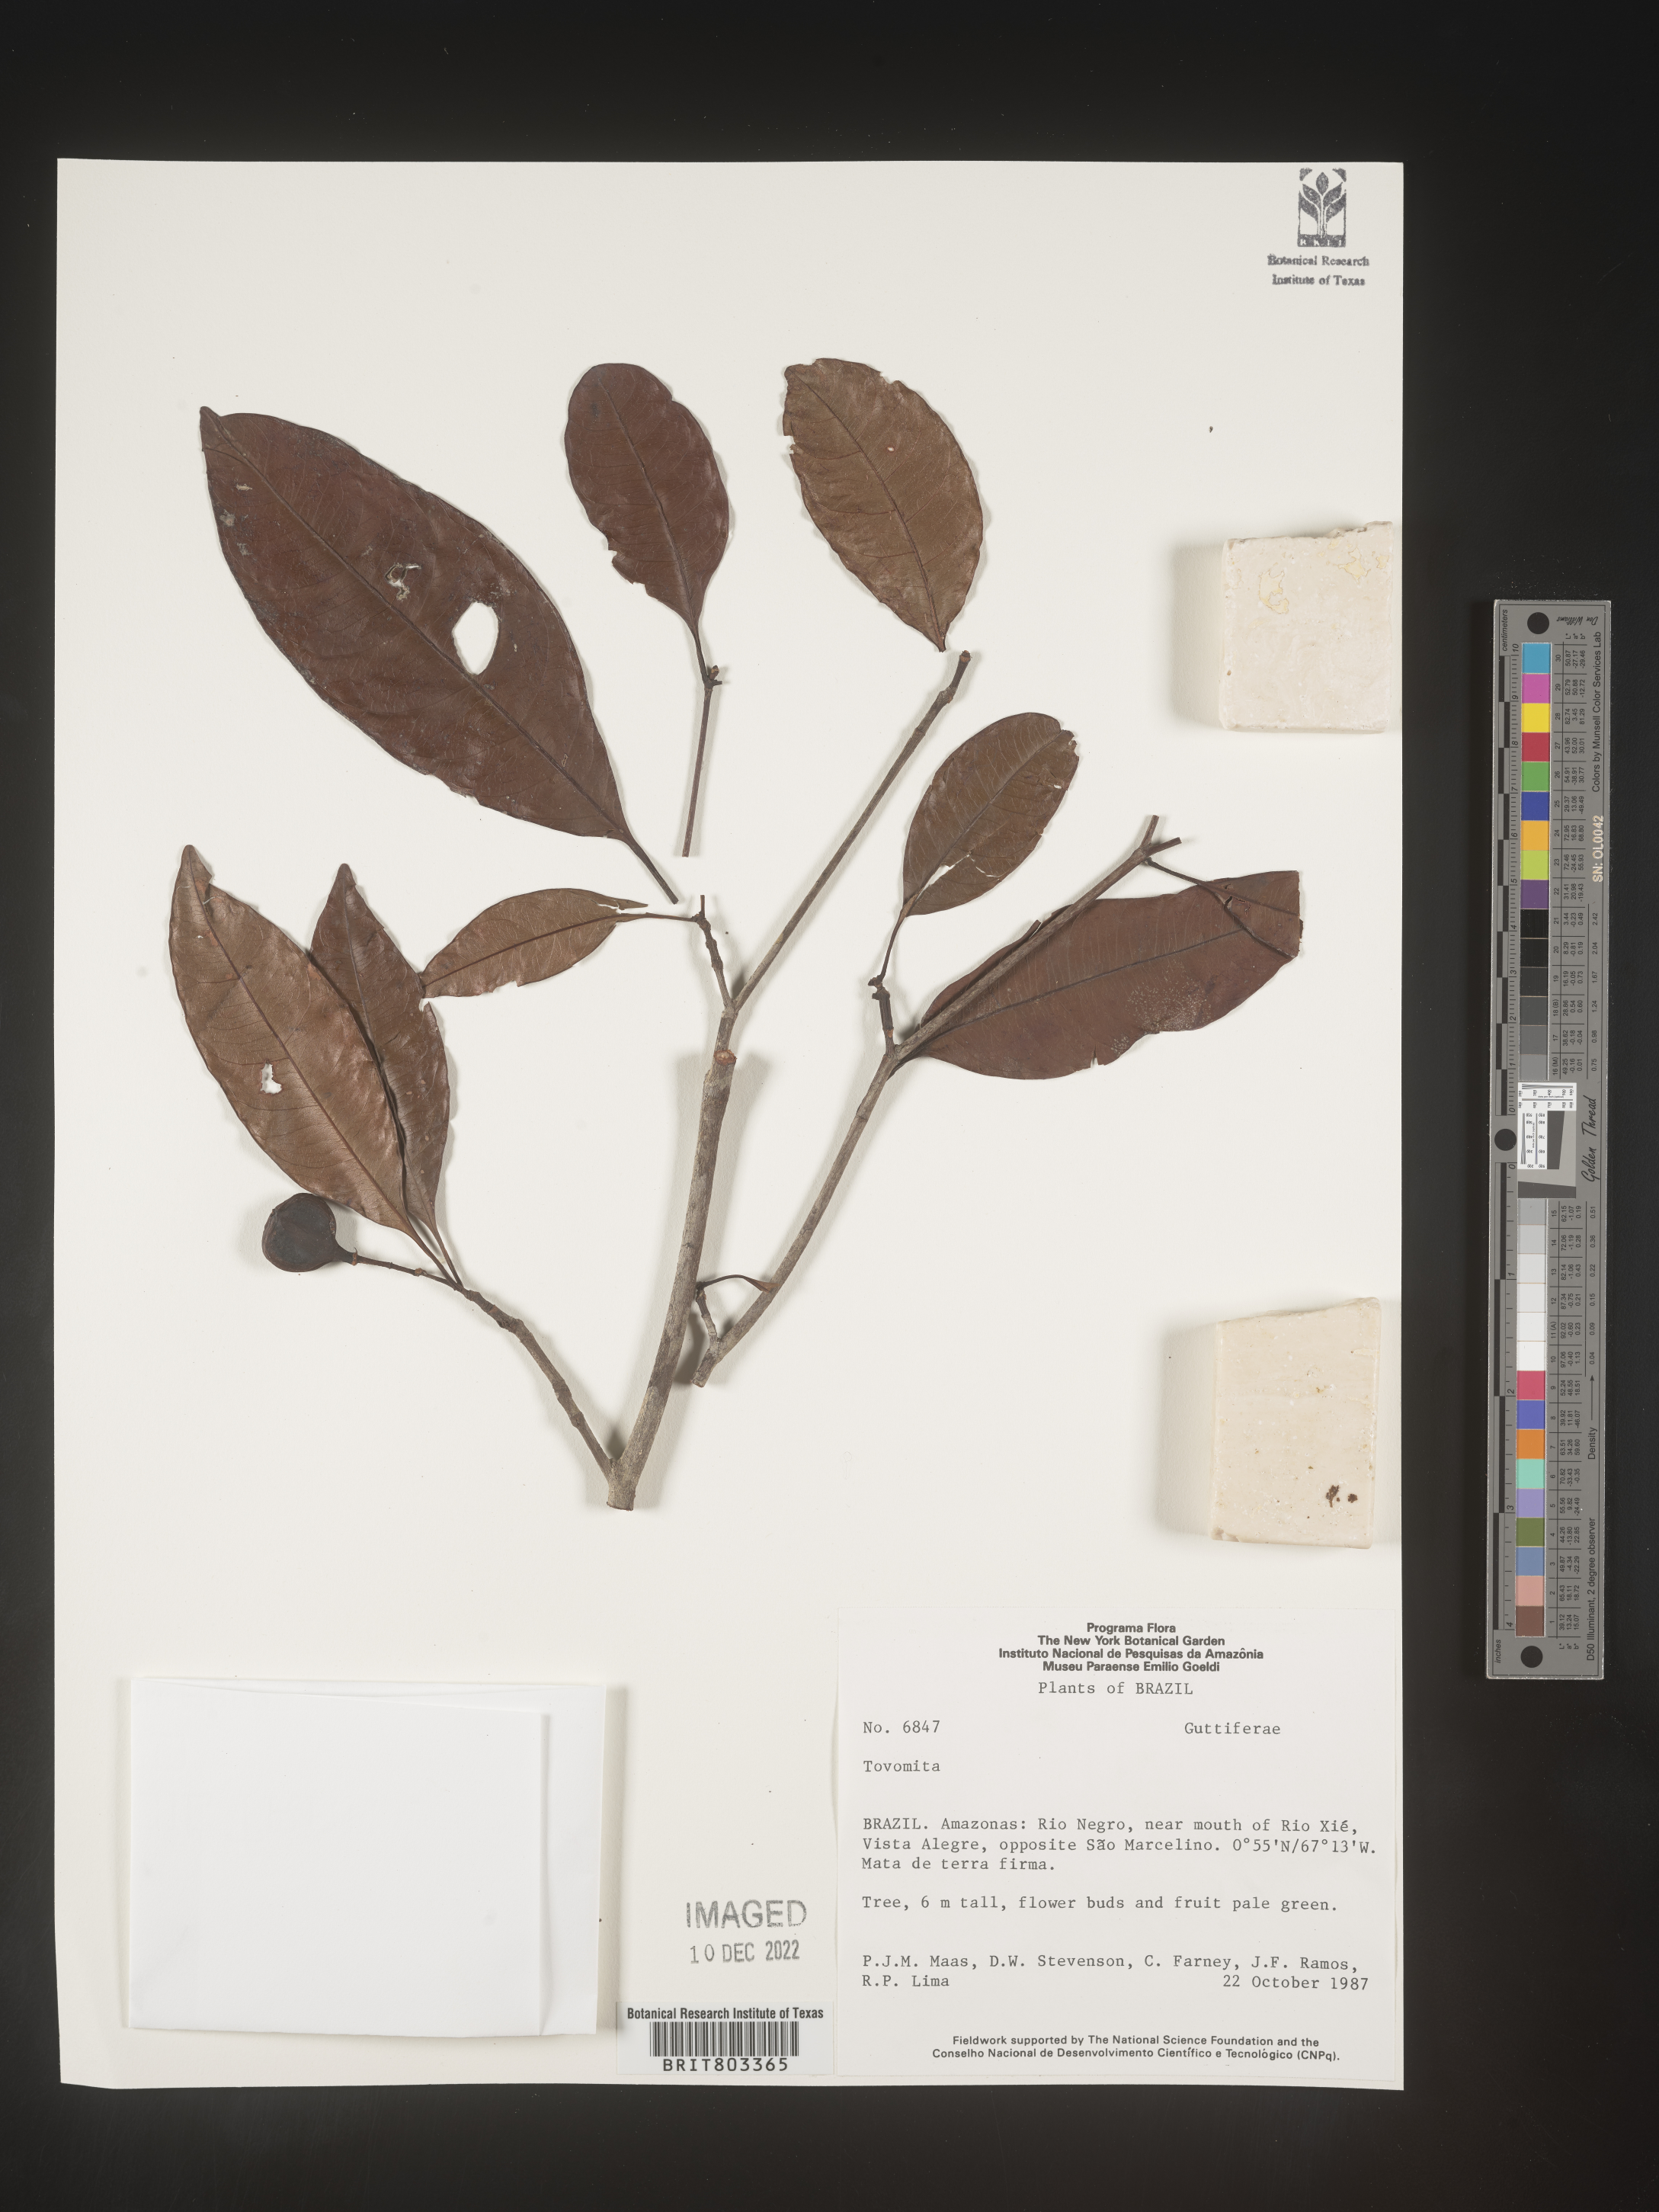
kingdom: Plantae
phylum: Tracheophyta
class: Magnoliopsida
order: Malpighiales
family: Clusiaceae
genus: Tovomita
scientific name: Tovomita
